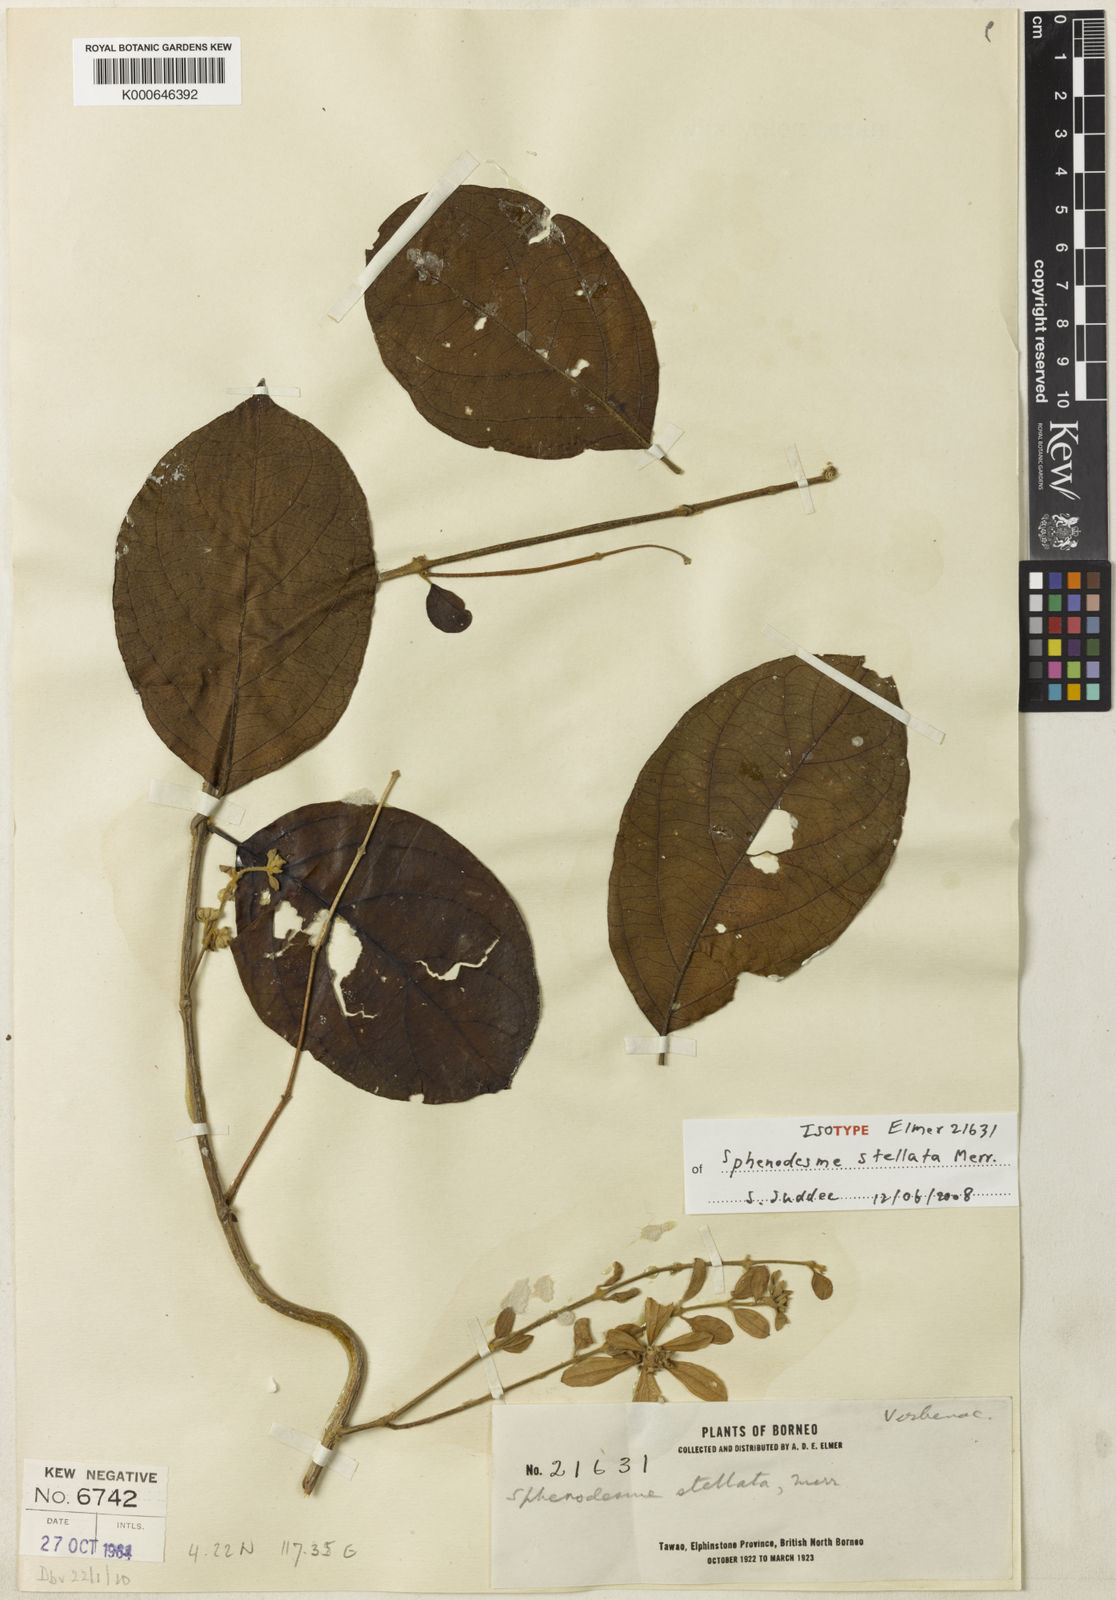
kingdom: Plantae
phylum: Tracheophyta
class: Magnoliopsida
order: Lamiales
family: Lamiaceae
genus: Sphenodesme
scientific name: Sphenodesme stellata
